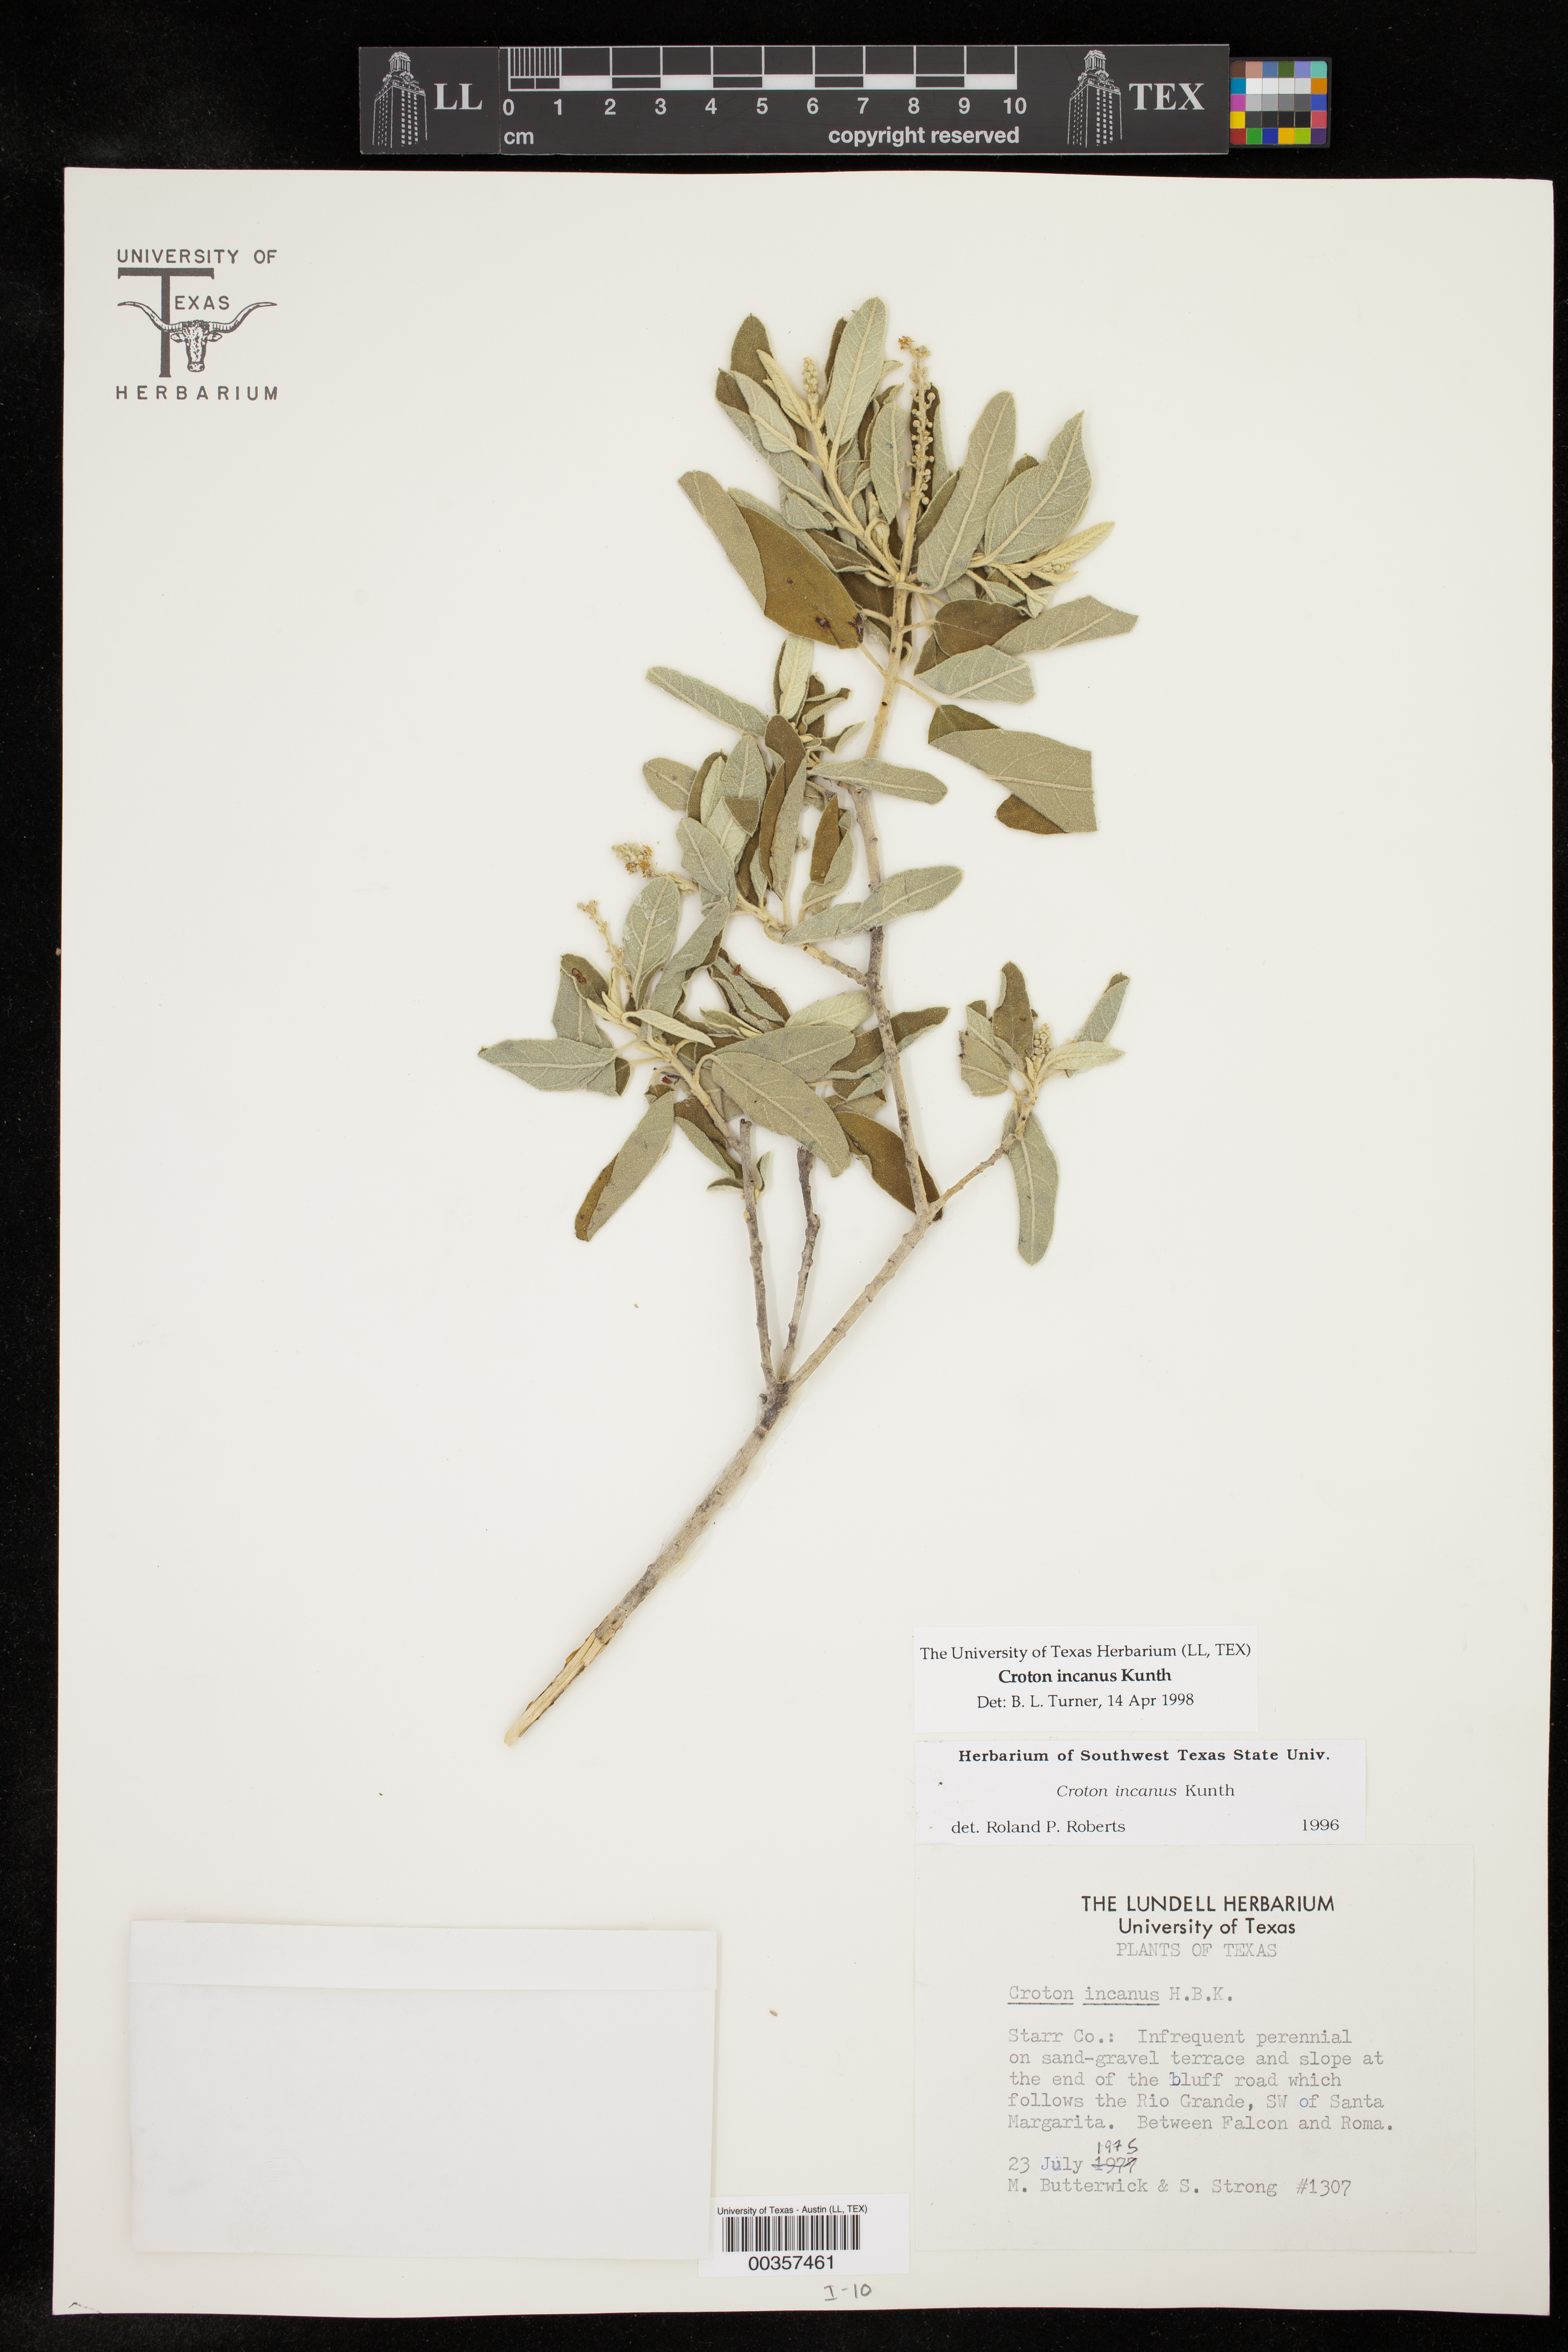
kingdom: Plantae
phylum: Tracheophyta
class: Magnoliopsida
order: Malpighiales
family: Euphorbiaceae
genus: Croton
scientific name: Croton incanus
